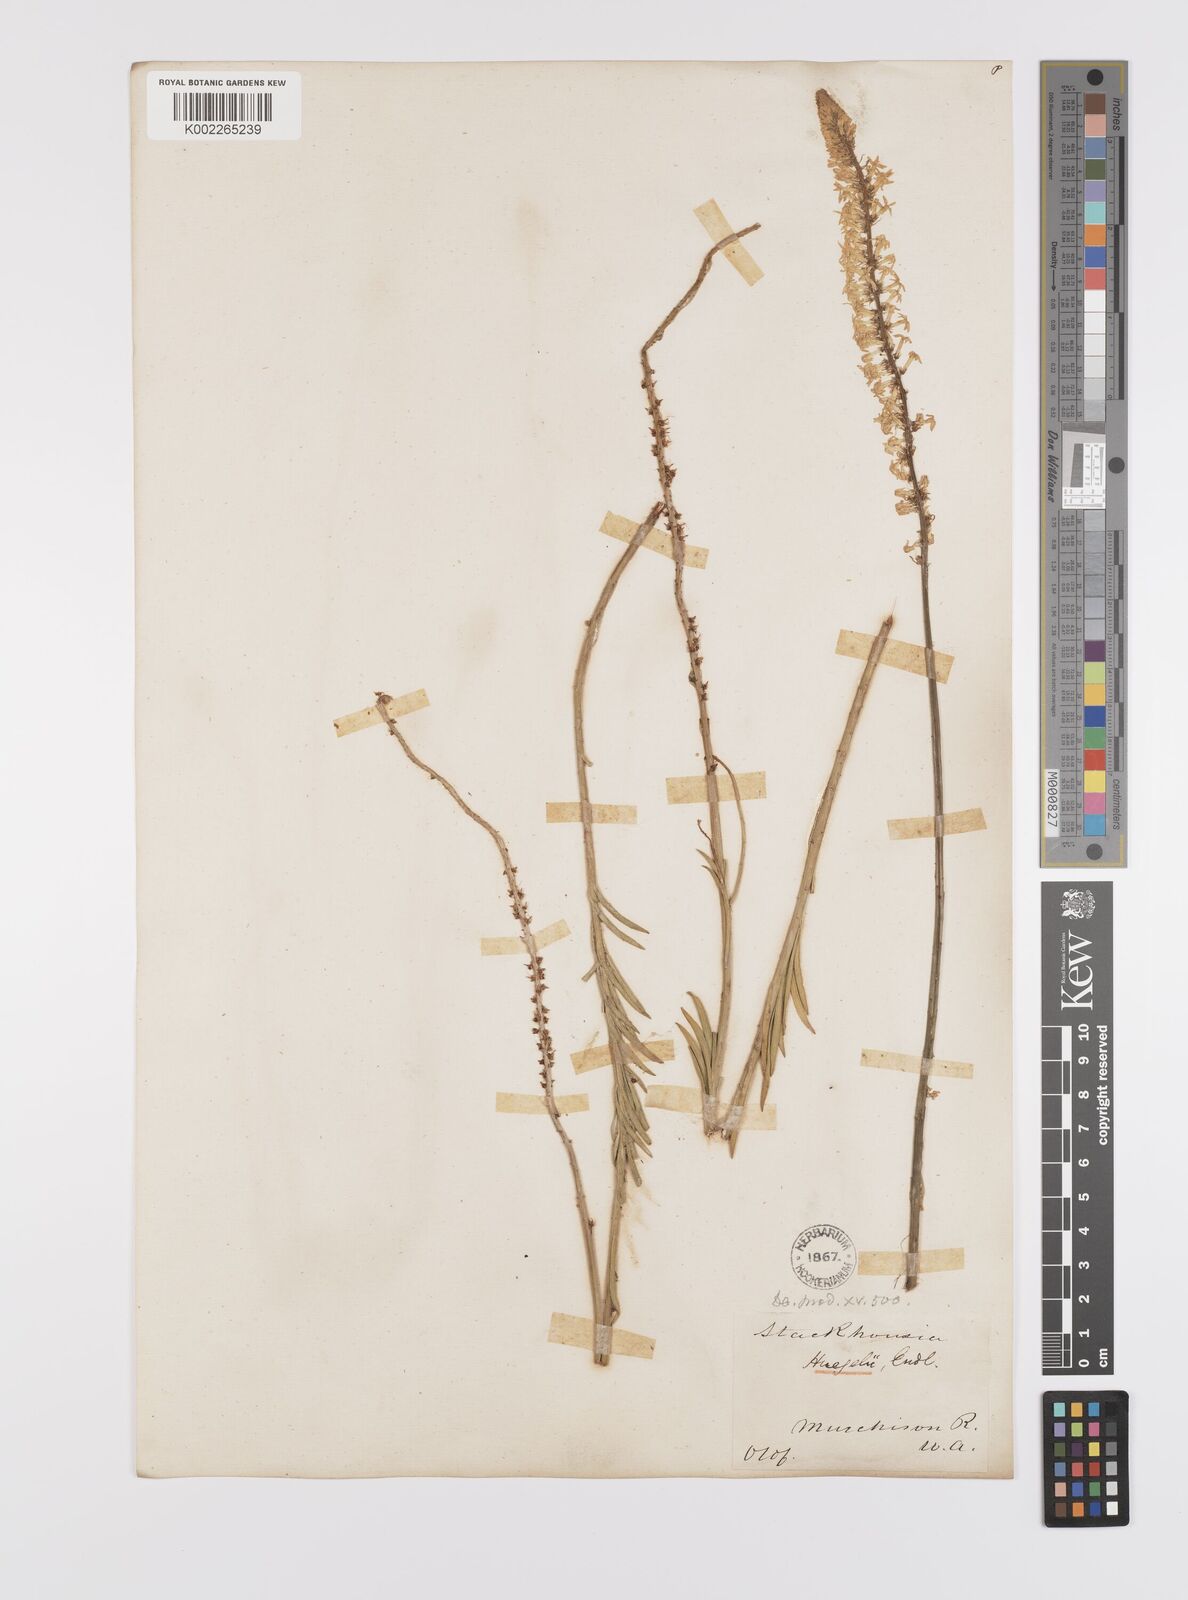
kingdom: Plantae
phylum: Tracheophyta
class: Magnoliopsida
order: Celastrales
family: Celastraceae
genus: Stackhousia
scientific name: Stackhousia monogyna
